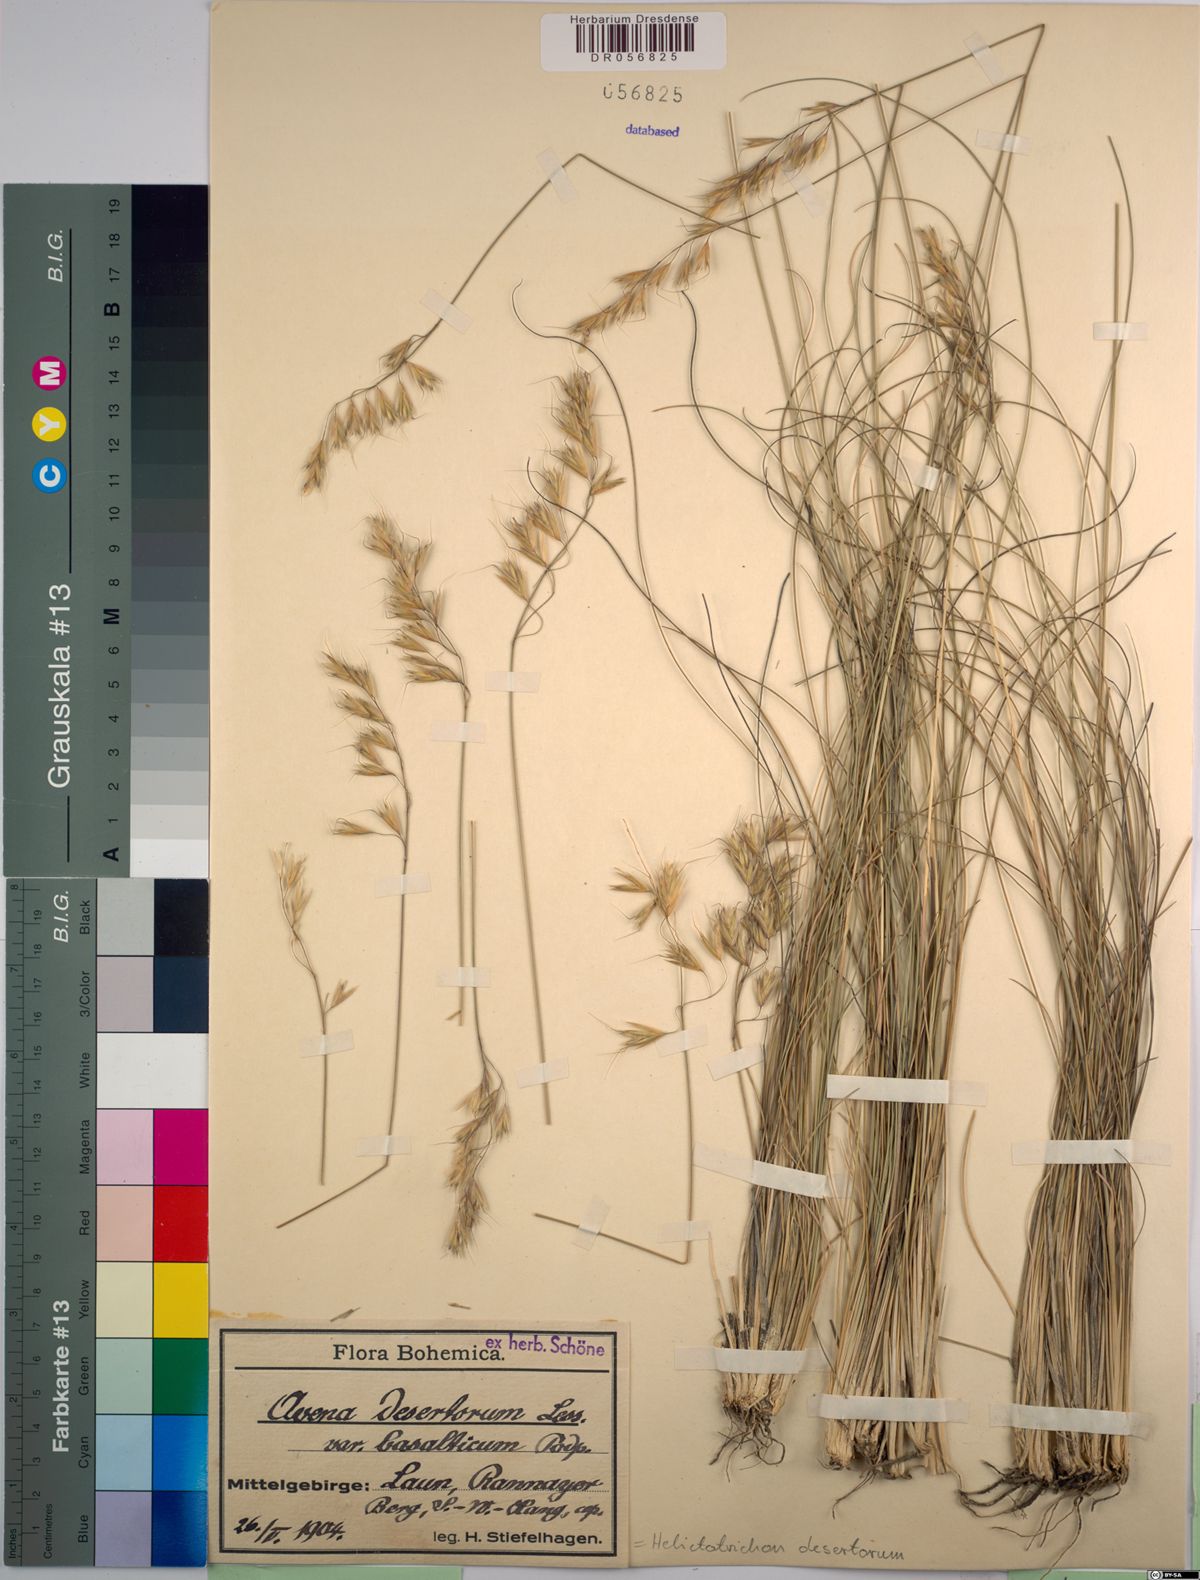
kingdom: Plantae
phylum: Tracheophyta
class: Liliopsida
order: Poales
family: Poaceae
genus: Helictotrichon
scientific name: Helictotrichon desertorum
